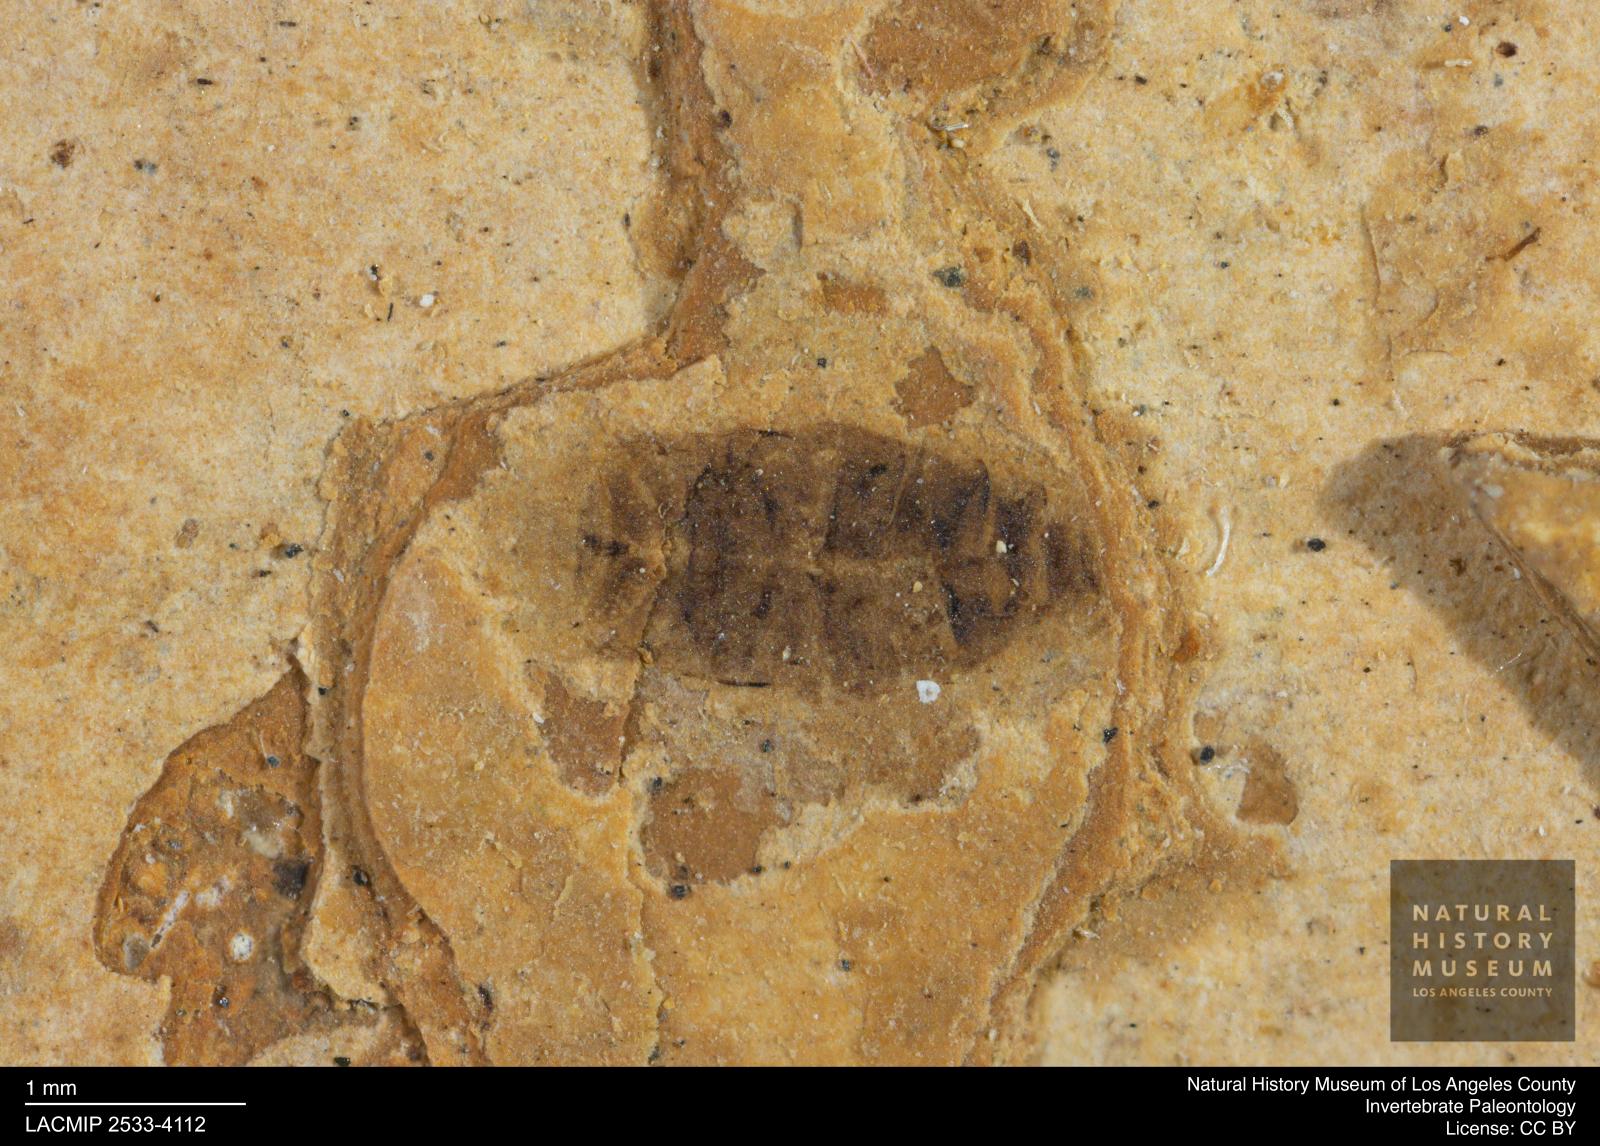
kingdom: Animalia
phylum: Arthropoda
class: Insecta
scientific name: Insecta
